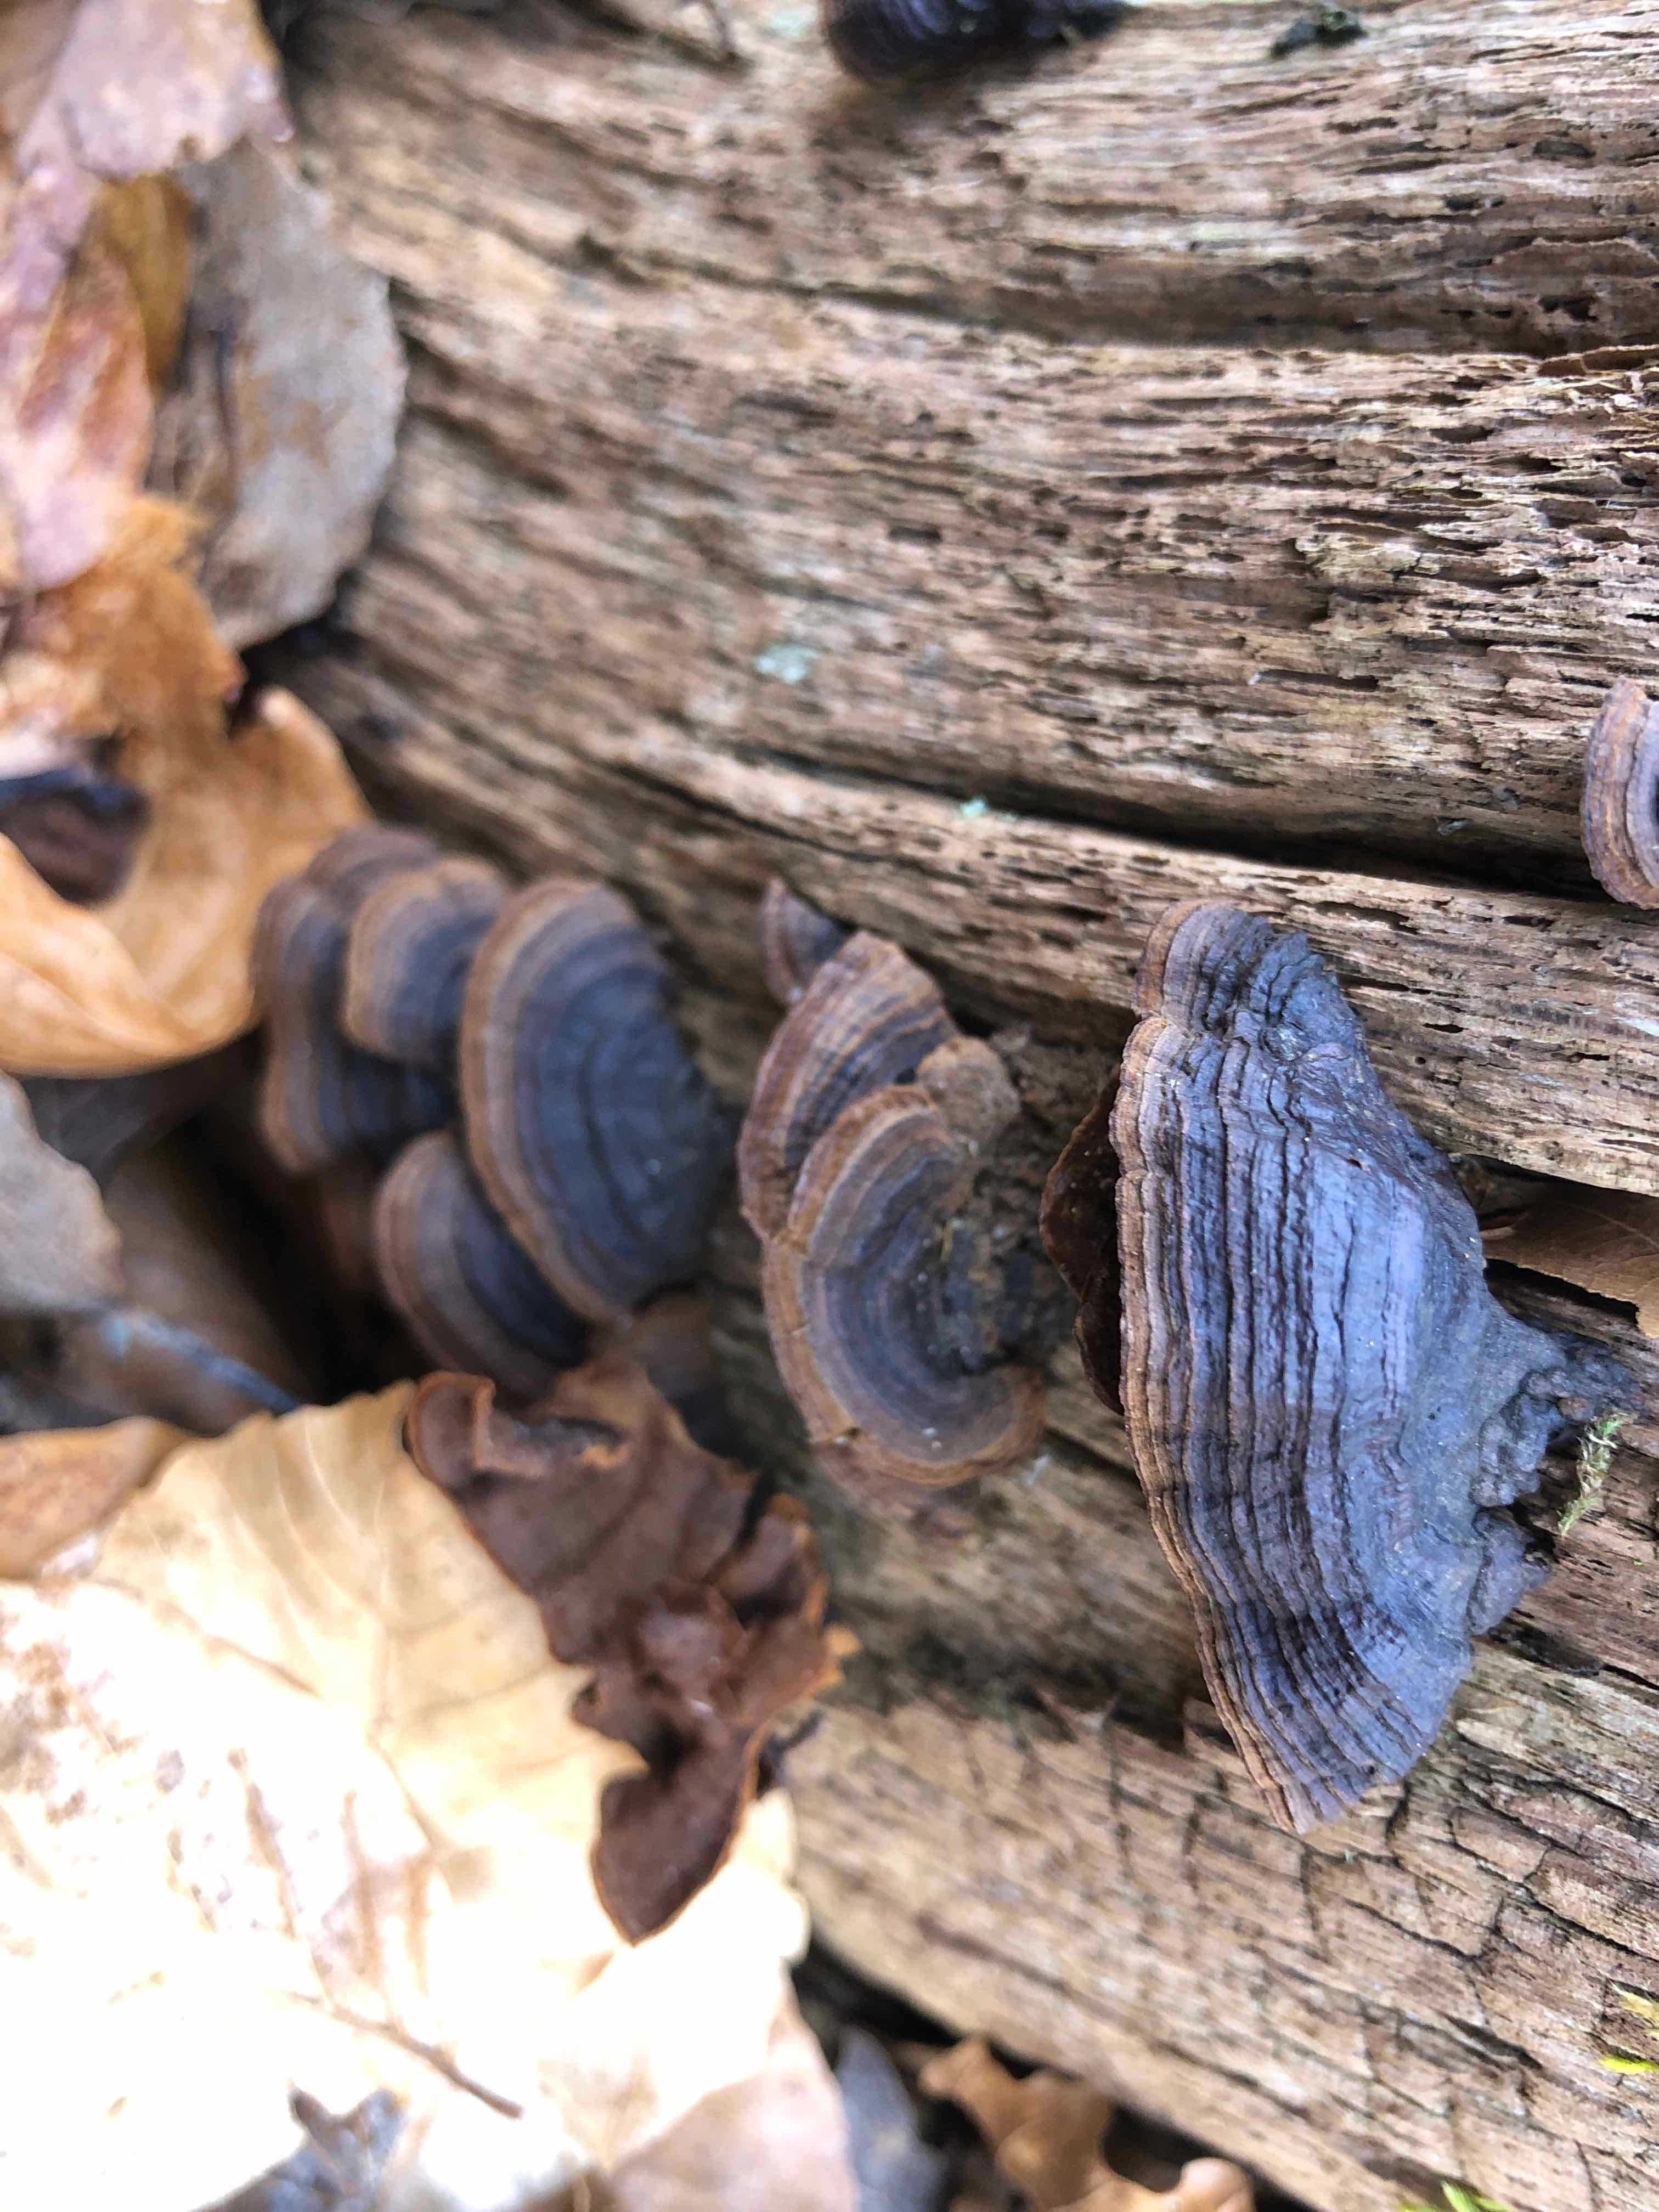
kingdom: Fungi
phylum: Basidiomycota
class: Agaricomycetes
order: Hymenochaetales
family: Hymenochaetaceae
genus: Hymenochaete
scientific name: Hymenochaete rubiginosa
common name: stiv ruslædersvamp
